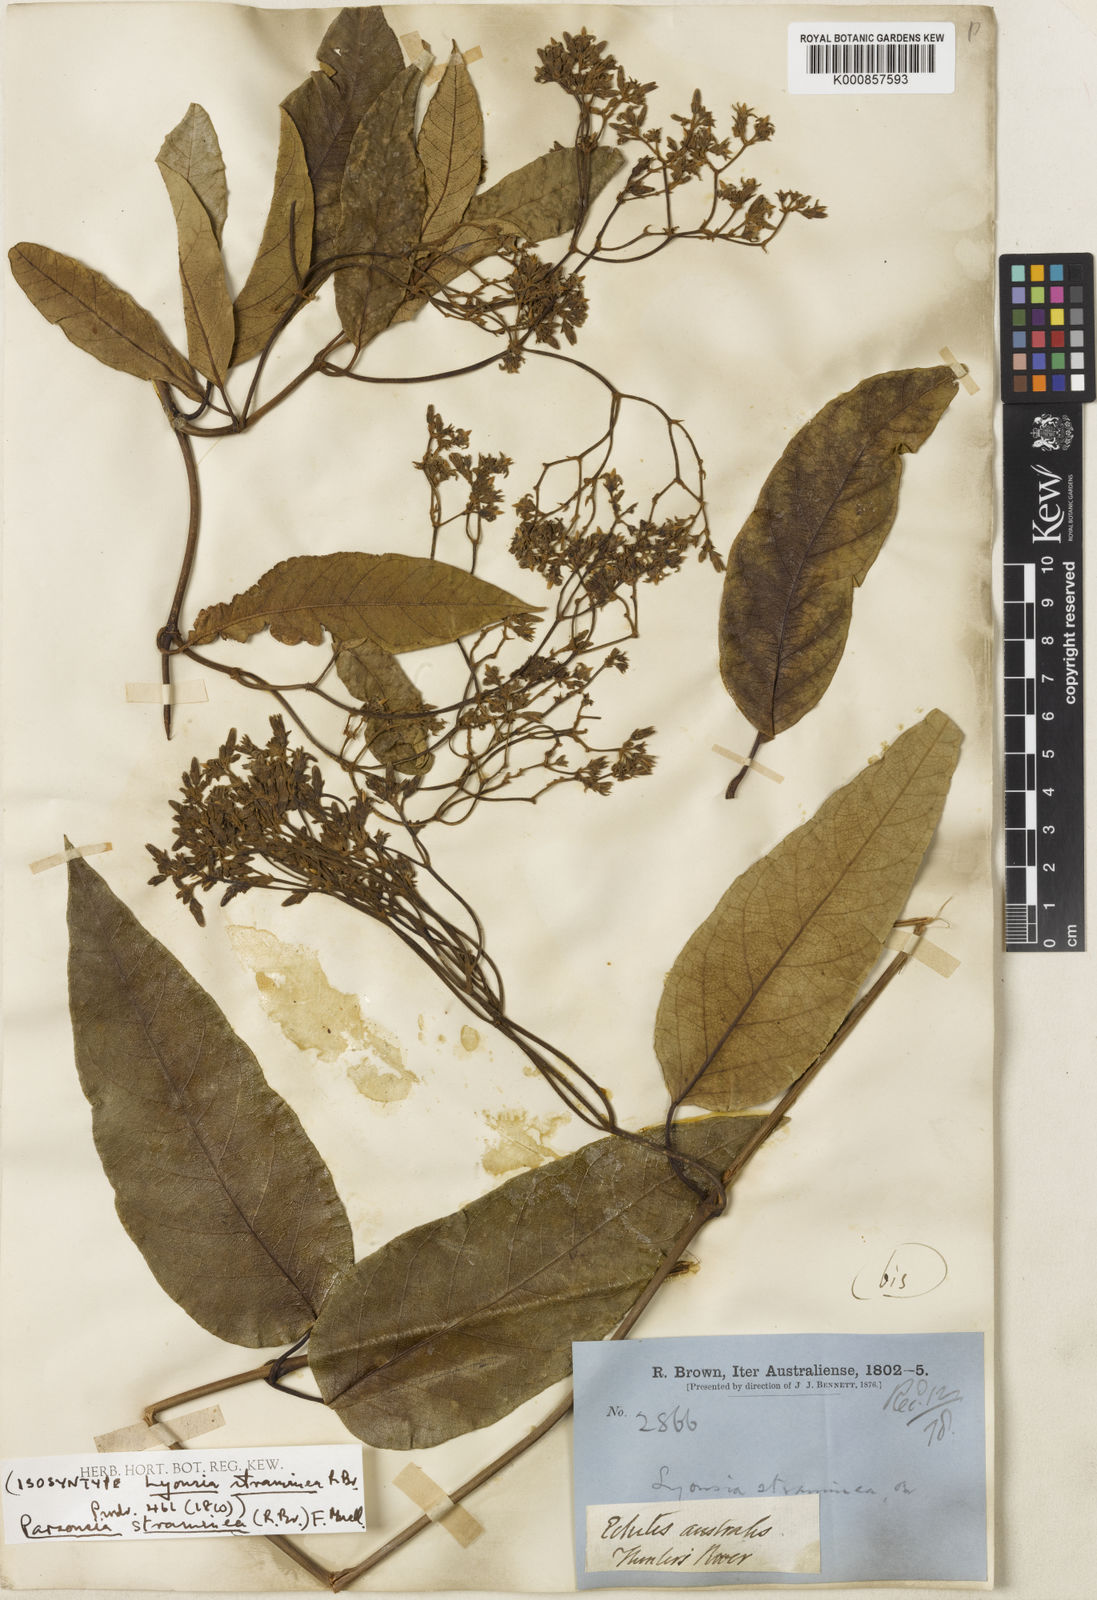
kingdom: Plantae
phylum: Tracheophyta
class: Magnoliopsida
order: Gentianales
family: Apocynaceae
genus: Parsonsia
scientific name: Parsonsia straminea
